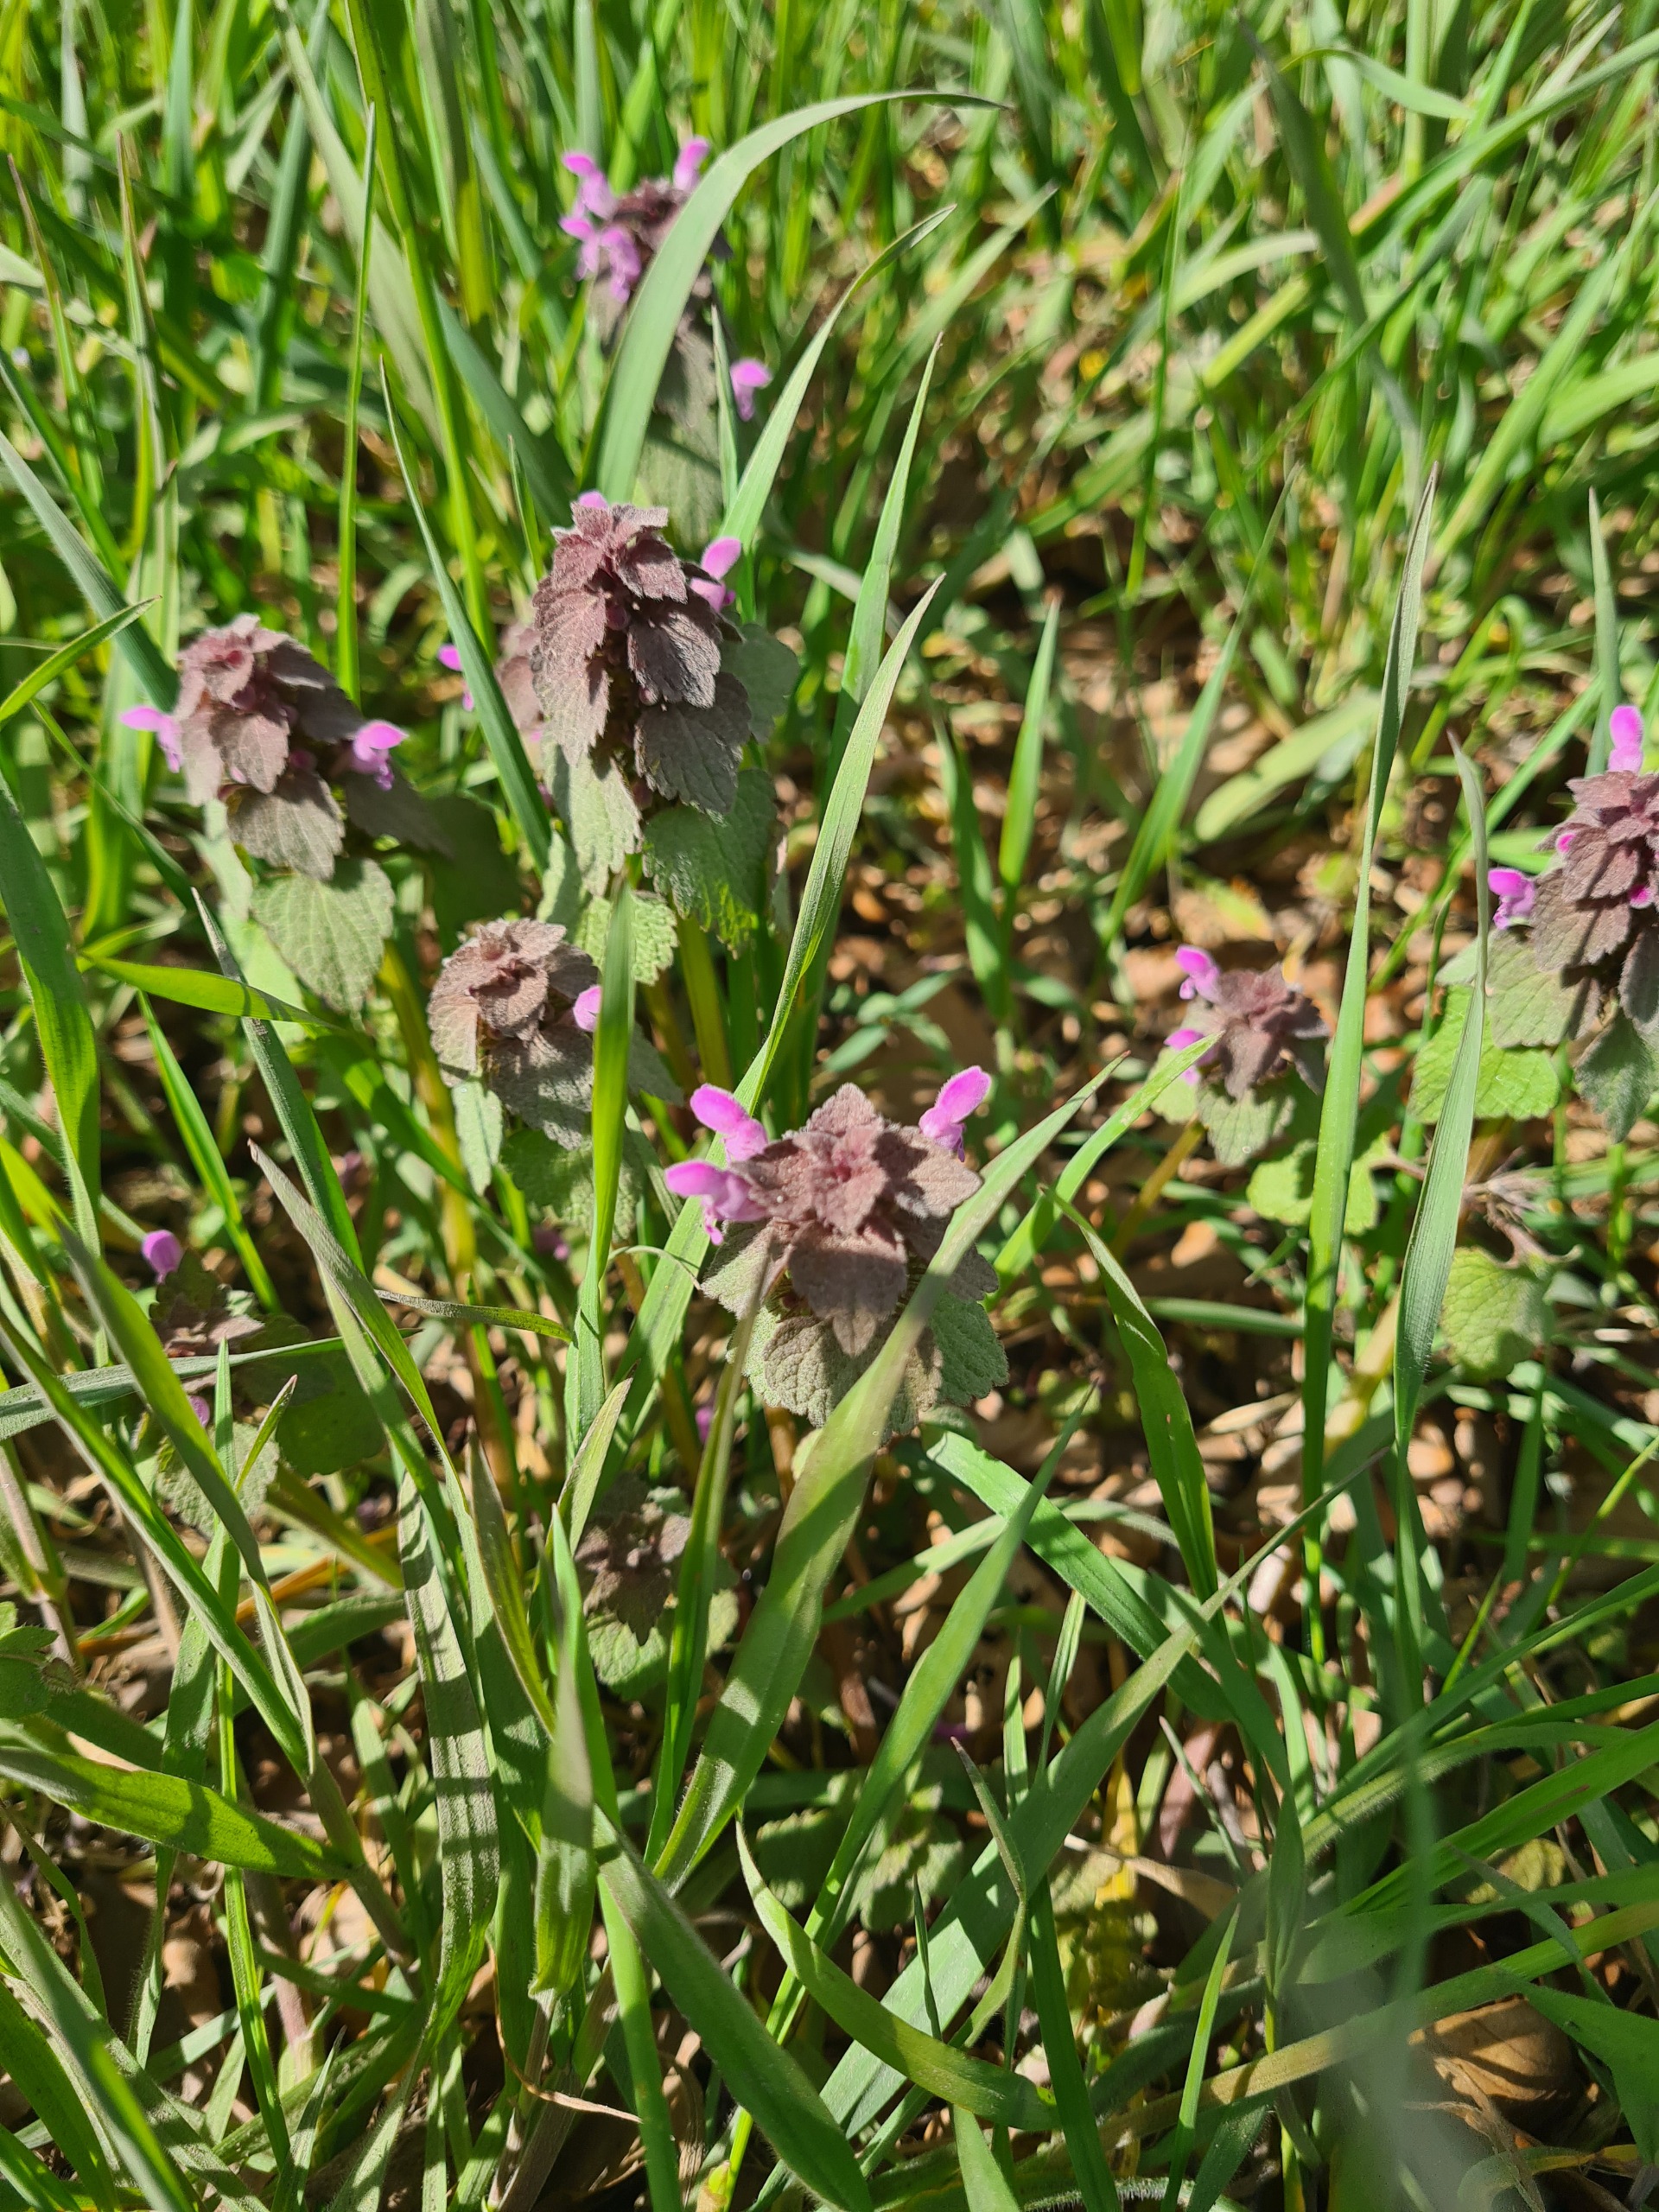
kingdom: Plantae
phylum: Tracheophyta
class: Magnoliopsida
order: Lamiales
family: Lamiaceae
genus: Lamium
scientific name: Lamium purpureum
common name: Rød tvetand
